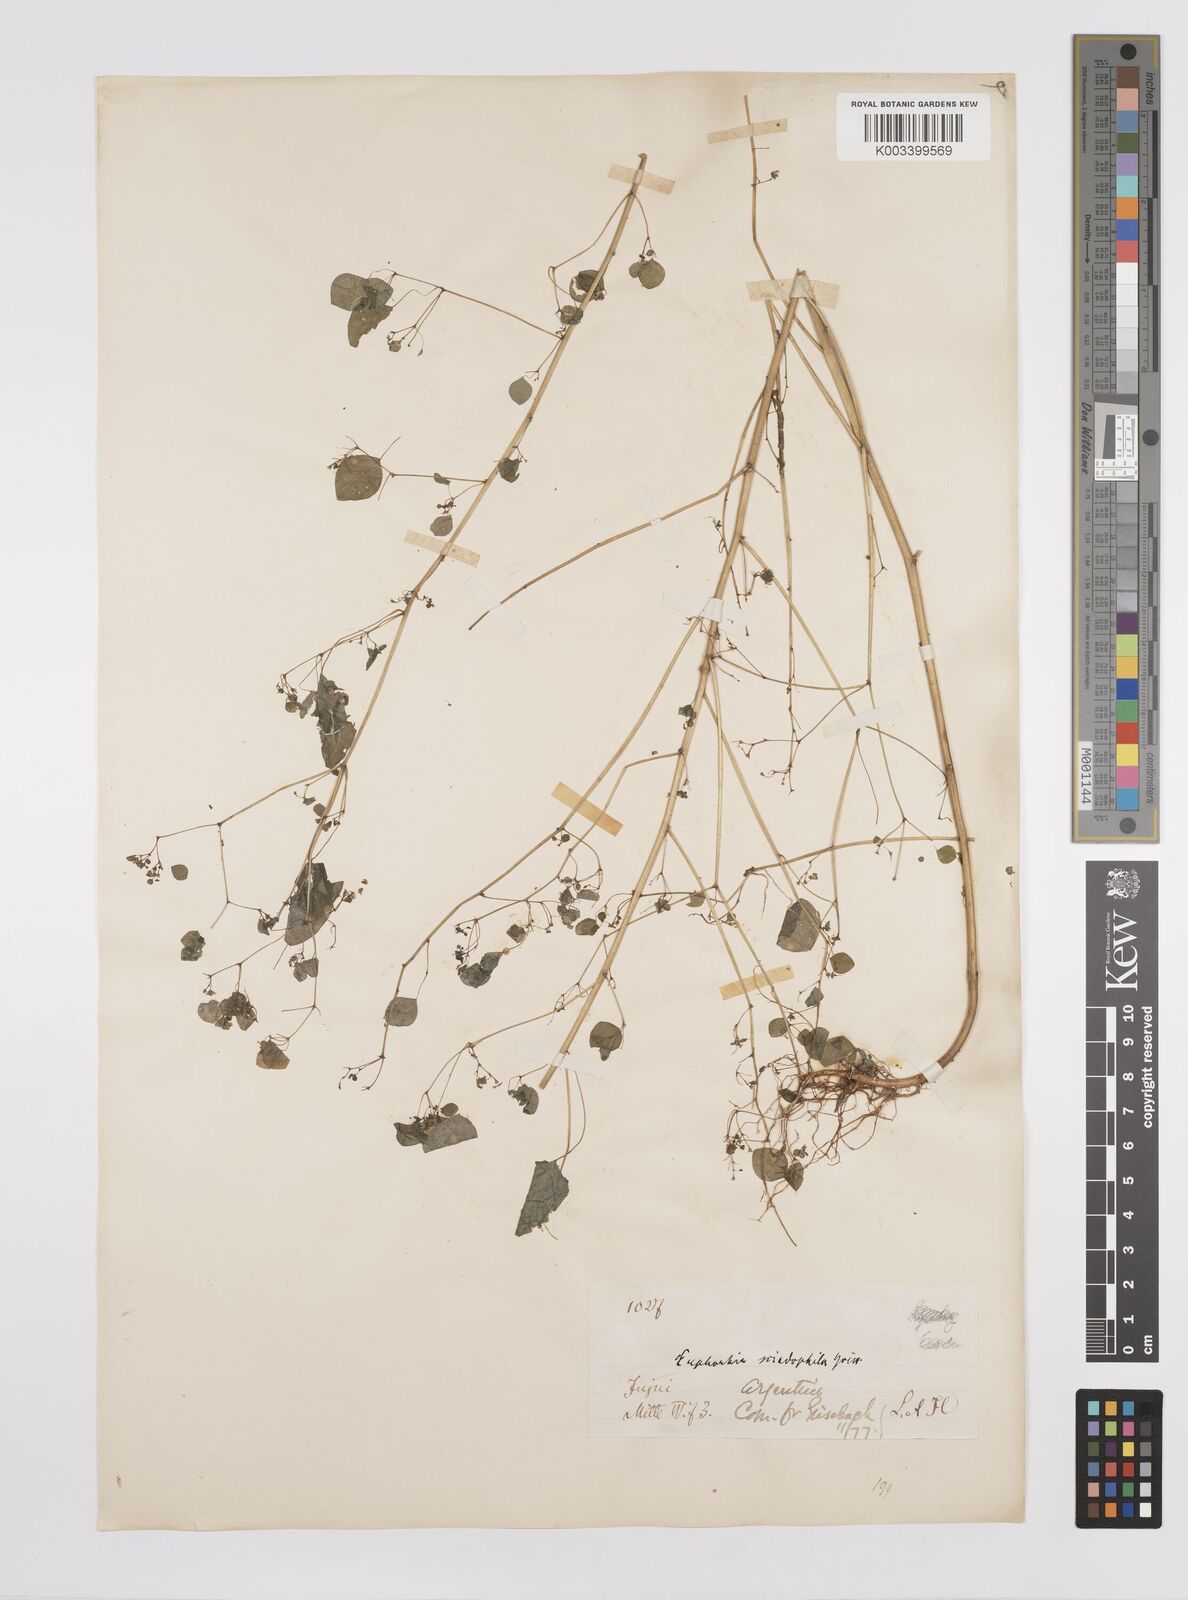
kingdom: Plantae
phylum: Tracheophyta
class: Magnoliopsida
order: Malpighiales
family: Euphorbiaceae
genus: Euphorbia
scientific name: Euphorbia sciadophila
